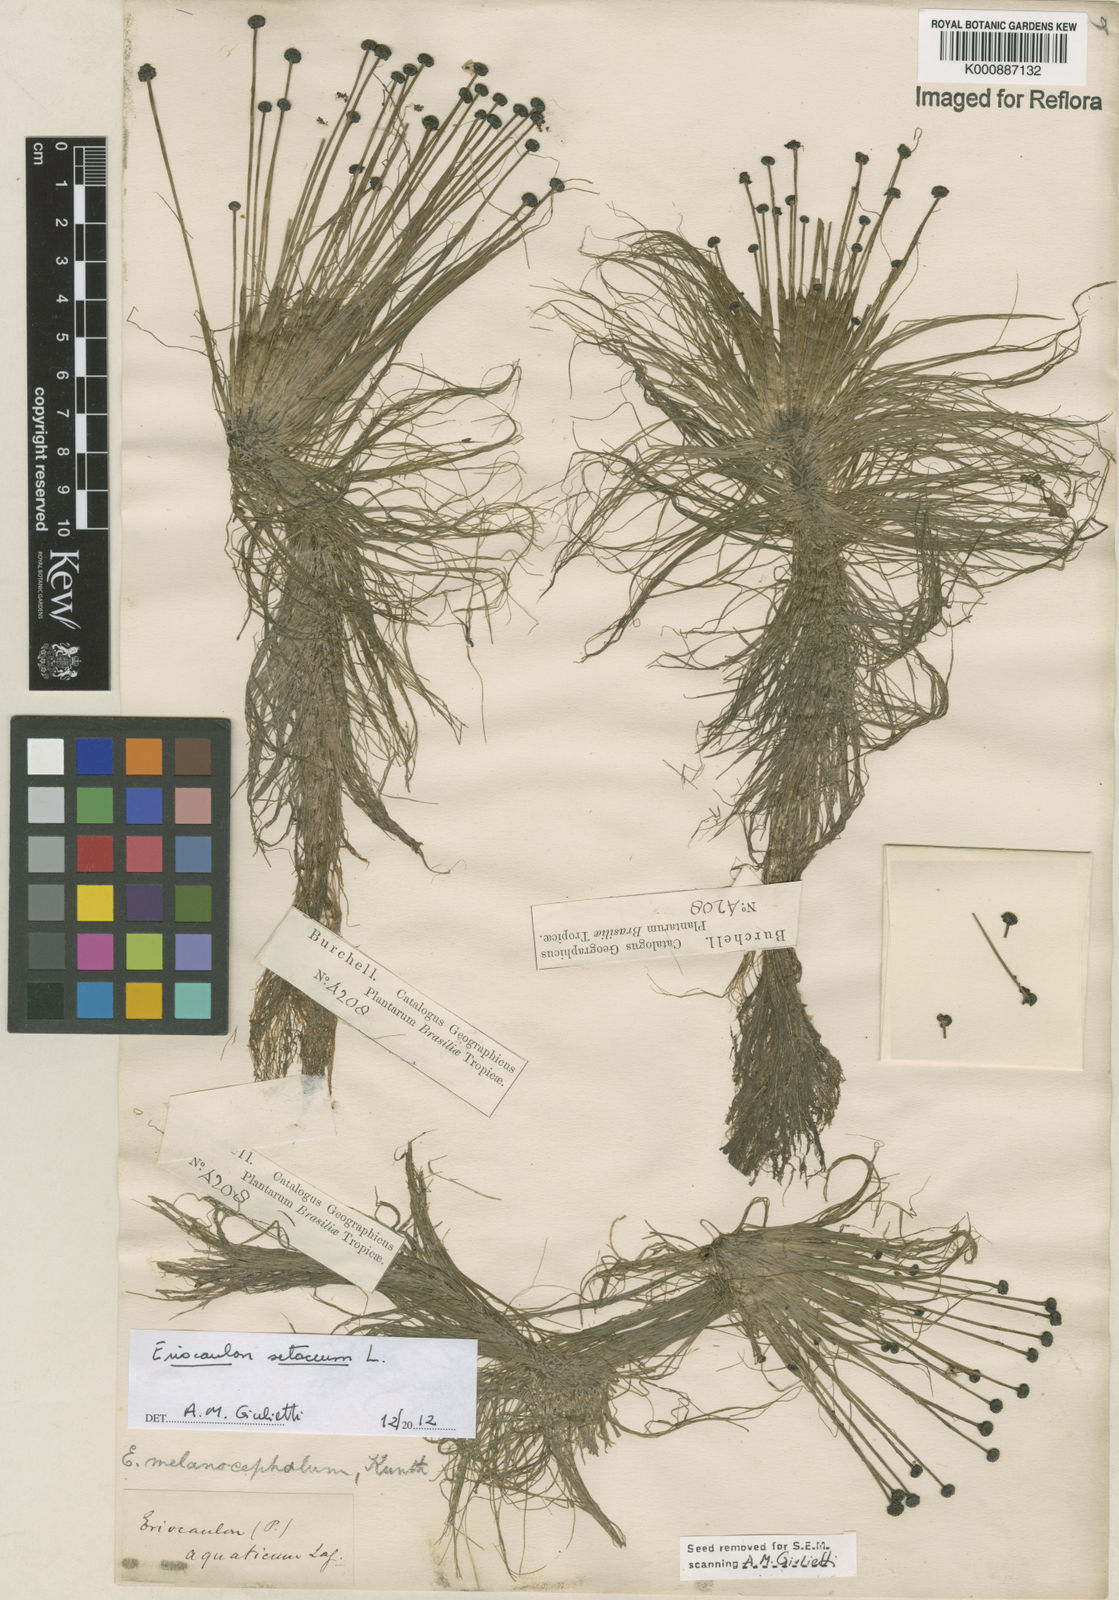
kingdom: Plantae
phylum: Tracheophyta
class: Liliopsida
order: Poales
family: Eriocaulaceae
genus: Eriocaulon
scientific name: Eriocaulon setaceum
